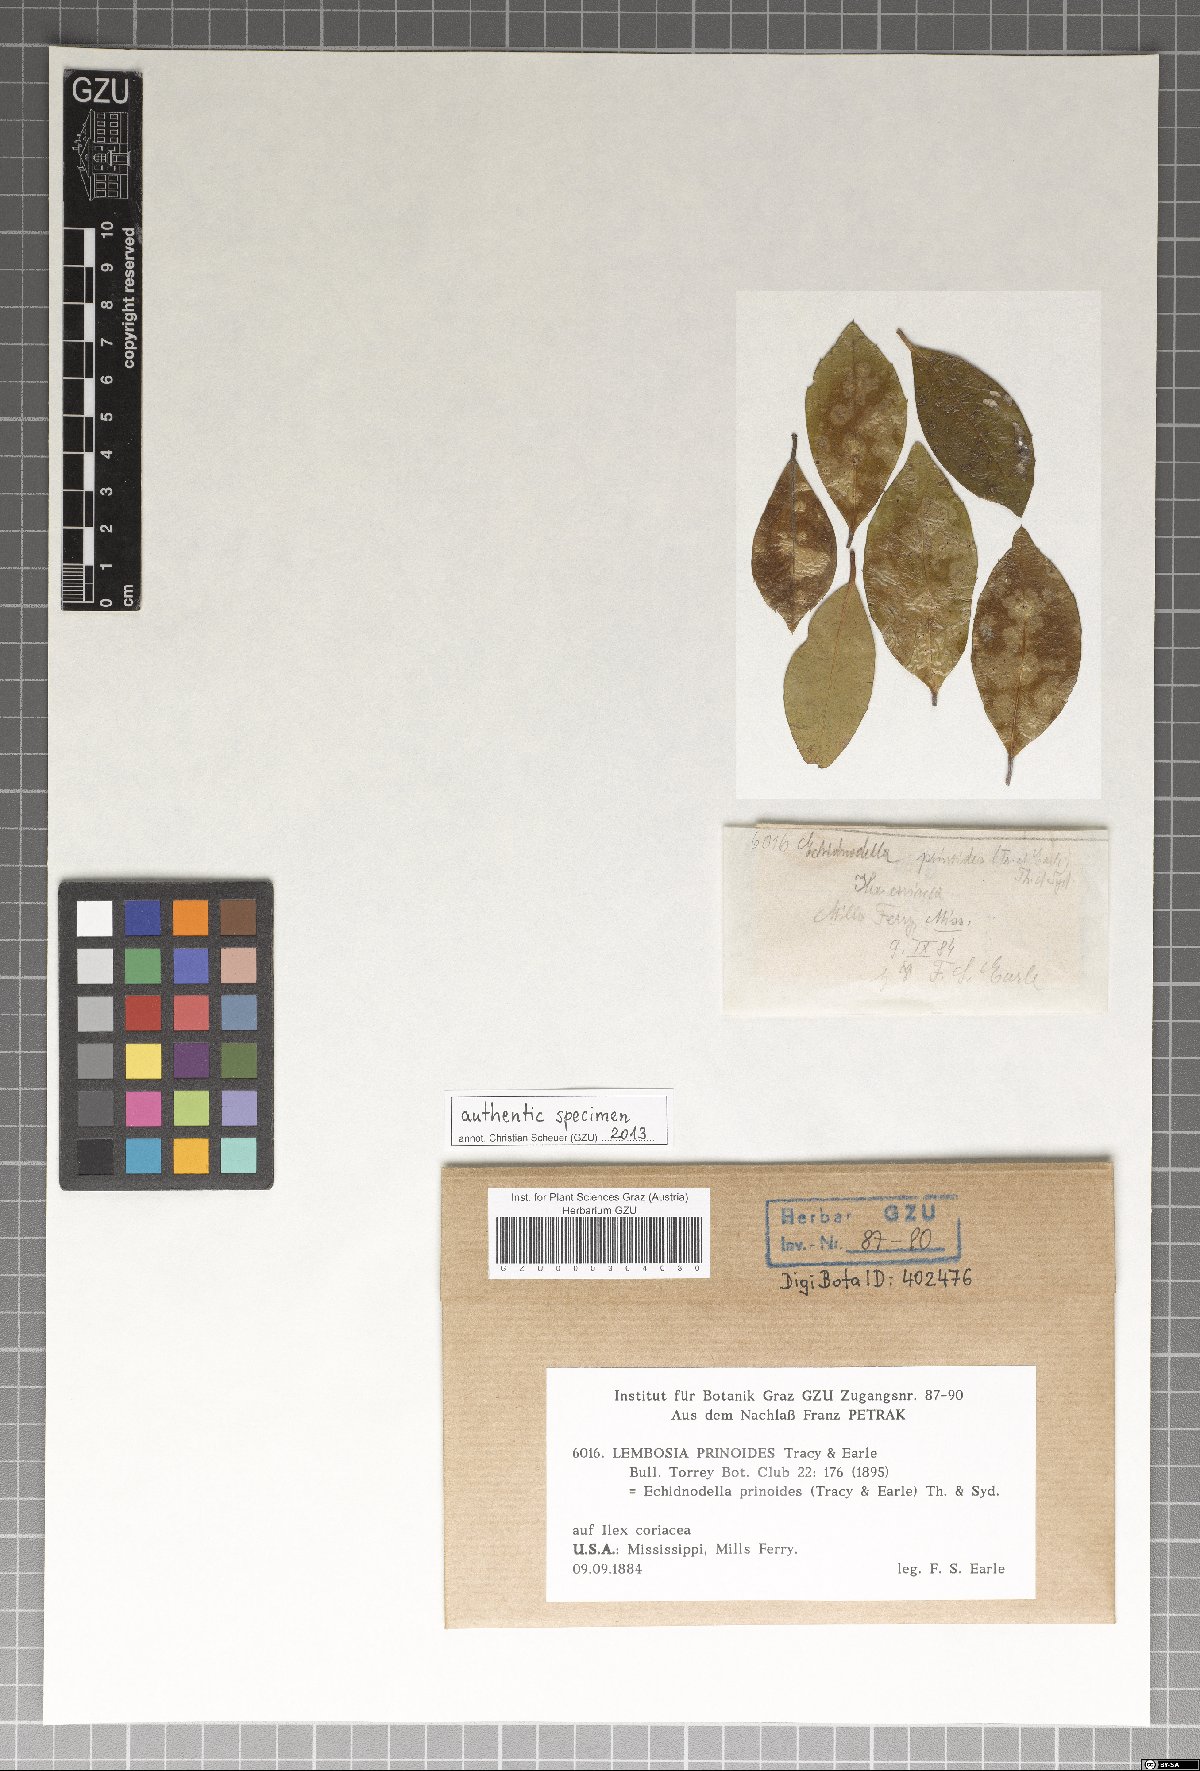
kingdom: Fungi
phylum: Ascomycota
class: Dothideomycetes
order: Asterinales
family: Asterinaceae
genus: Morqueria
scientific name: Morqueria prinoides
